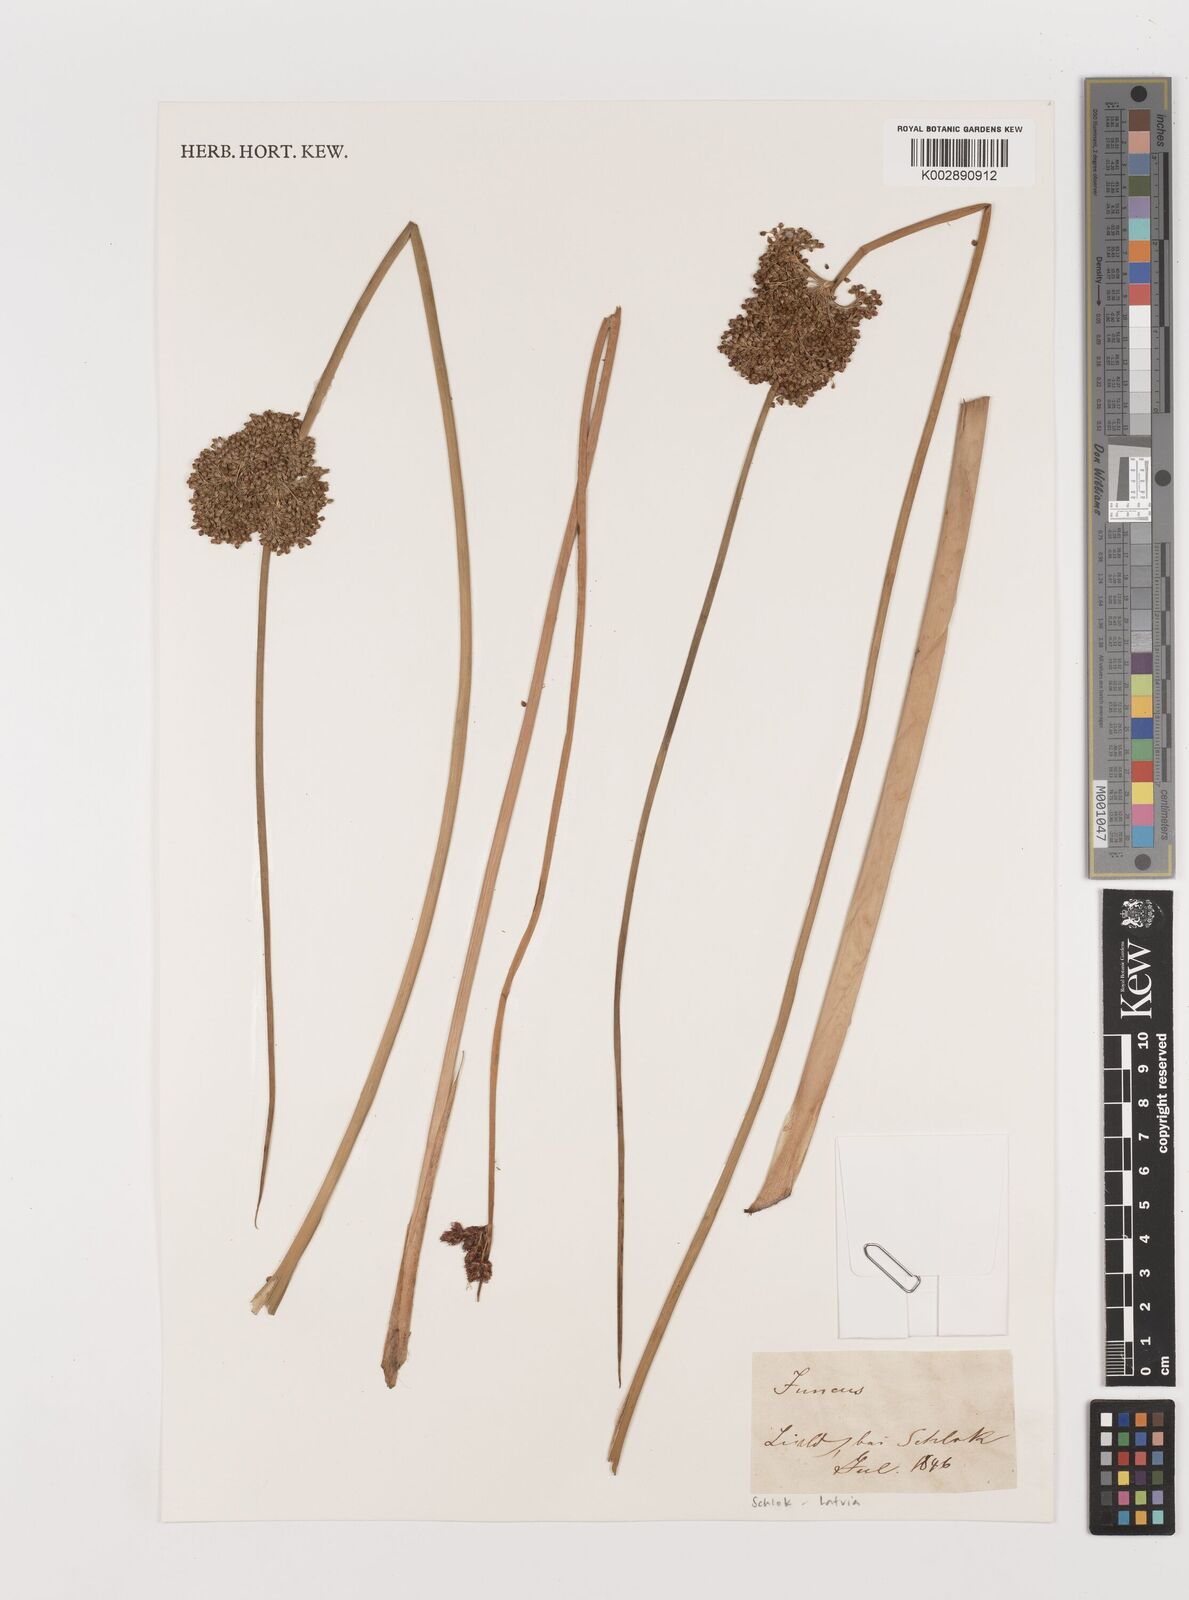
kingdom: Plantae
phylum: Tracheophyta
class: Liliopsida
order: Poales
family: Juncaceae
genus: Juncus
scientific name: Juncus
